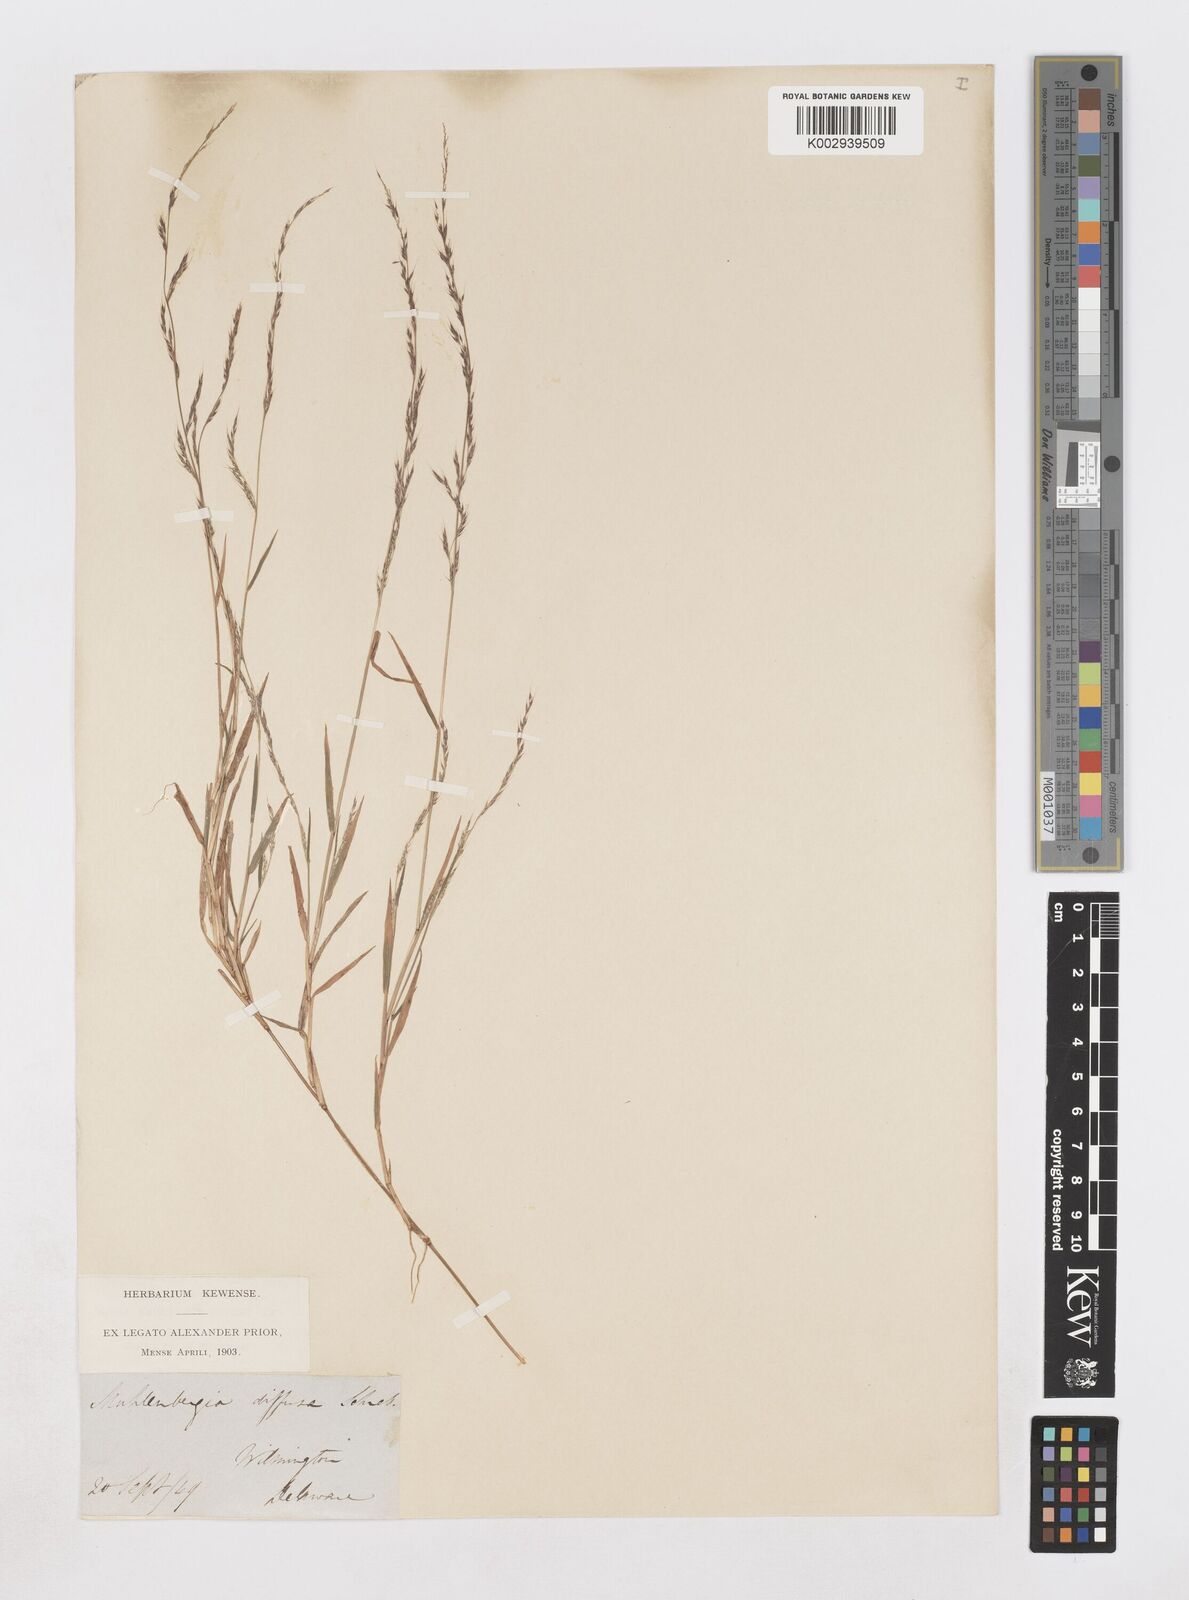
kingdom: Plantae
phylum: Tracheophyta
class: Liliopsida
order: Poales
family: Poaceae
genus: Muhlenbergia
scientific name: Muhlenbergia schreberi
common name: Nimblewill
